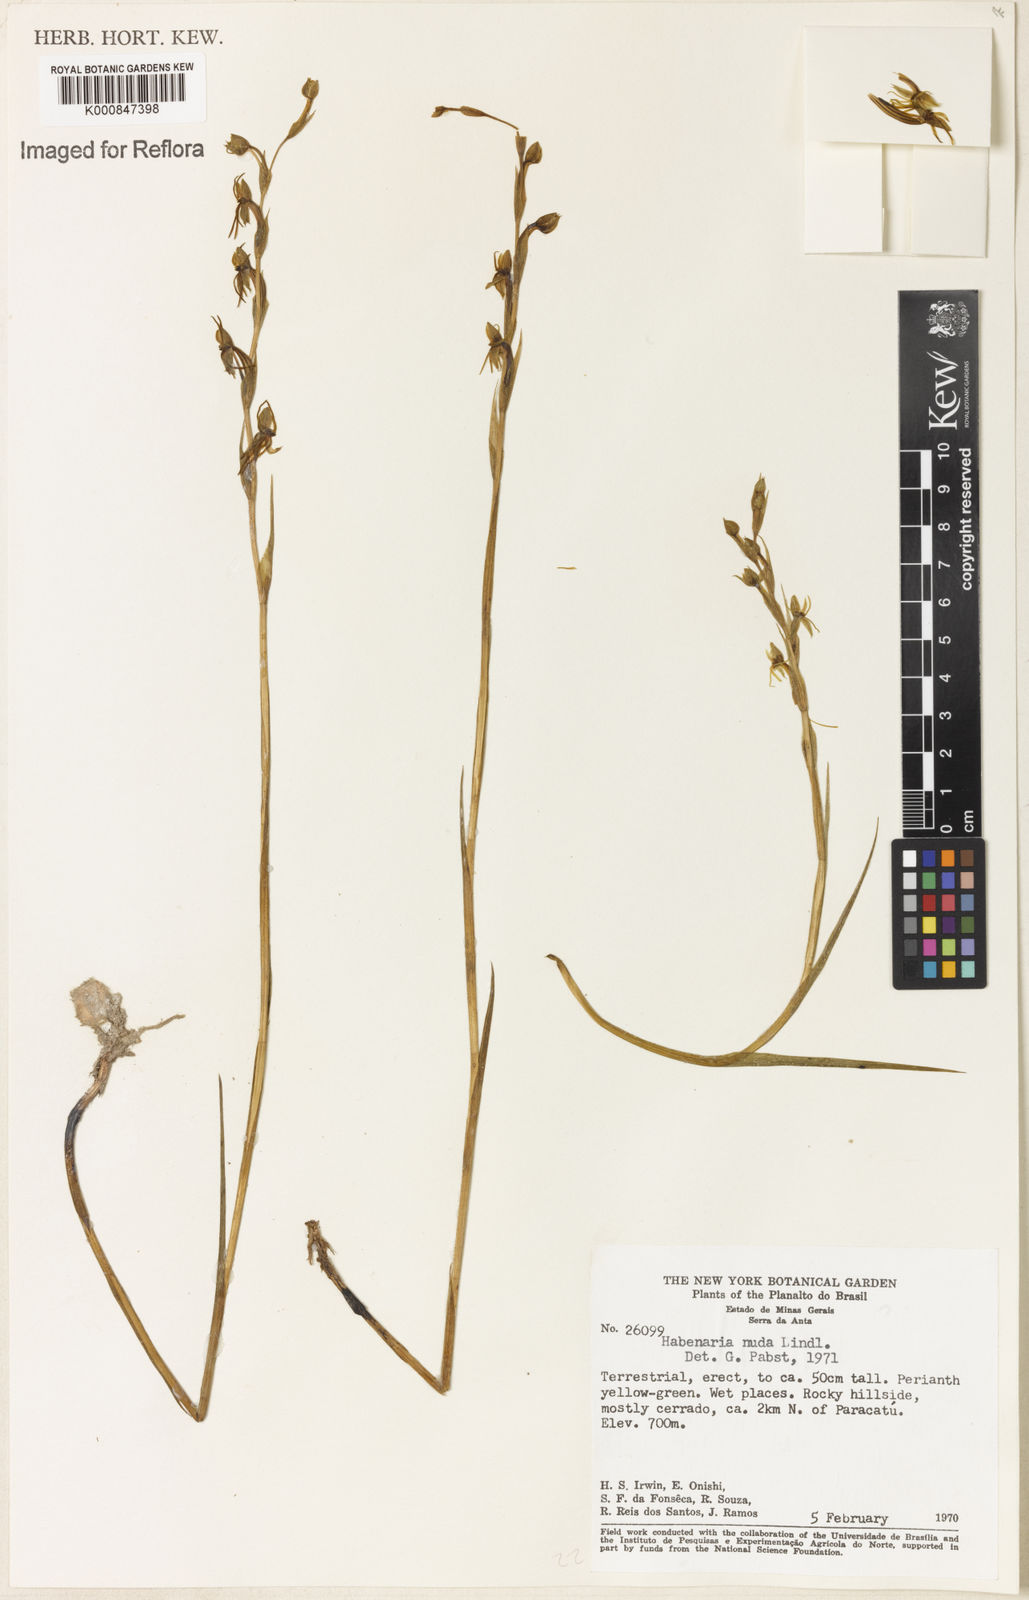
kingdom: Plantae
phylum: Tracheophyta
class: Liliopsida
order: Asparagales
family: Orchidaceae
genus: Habenaria
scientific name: Habenaria nuda
